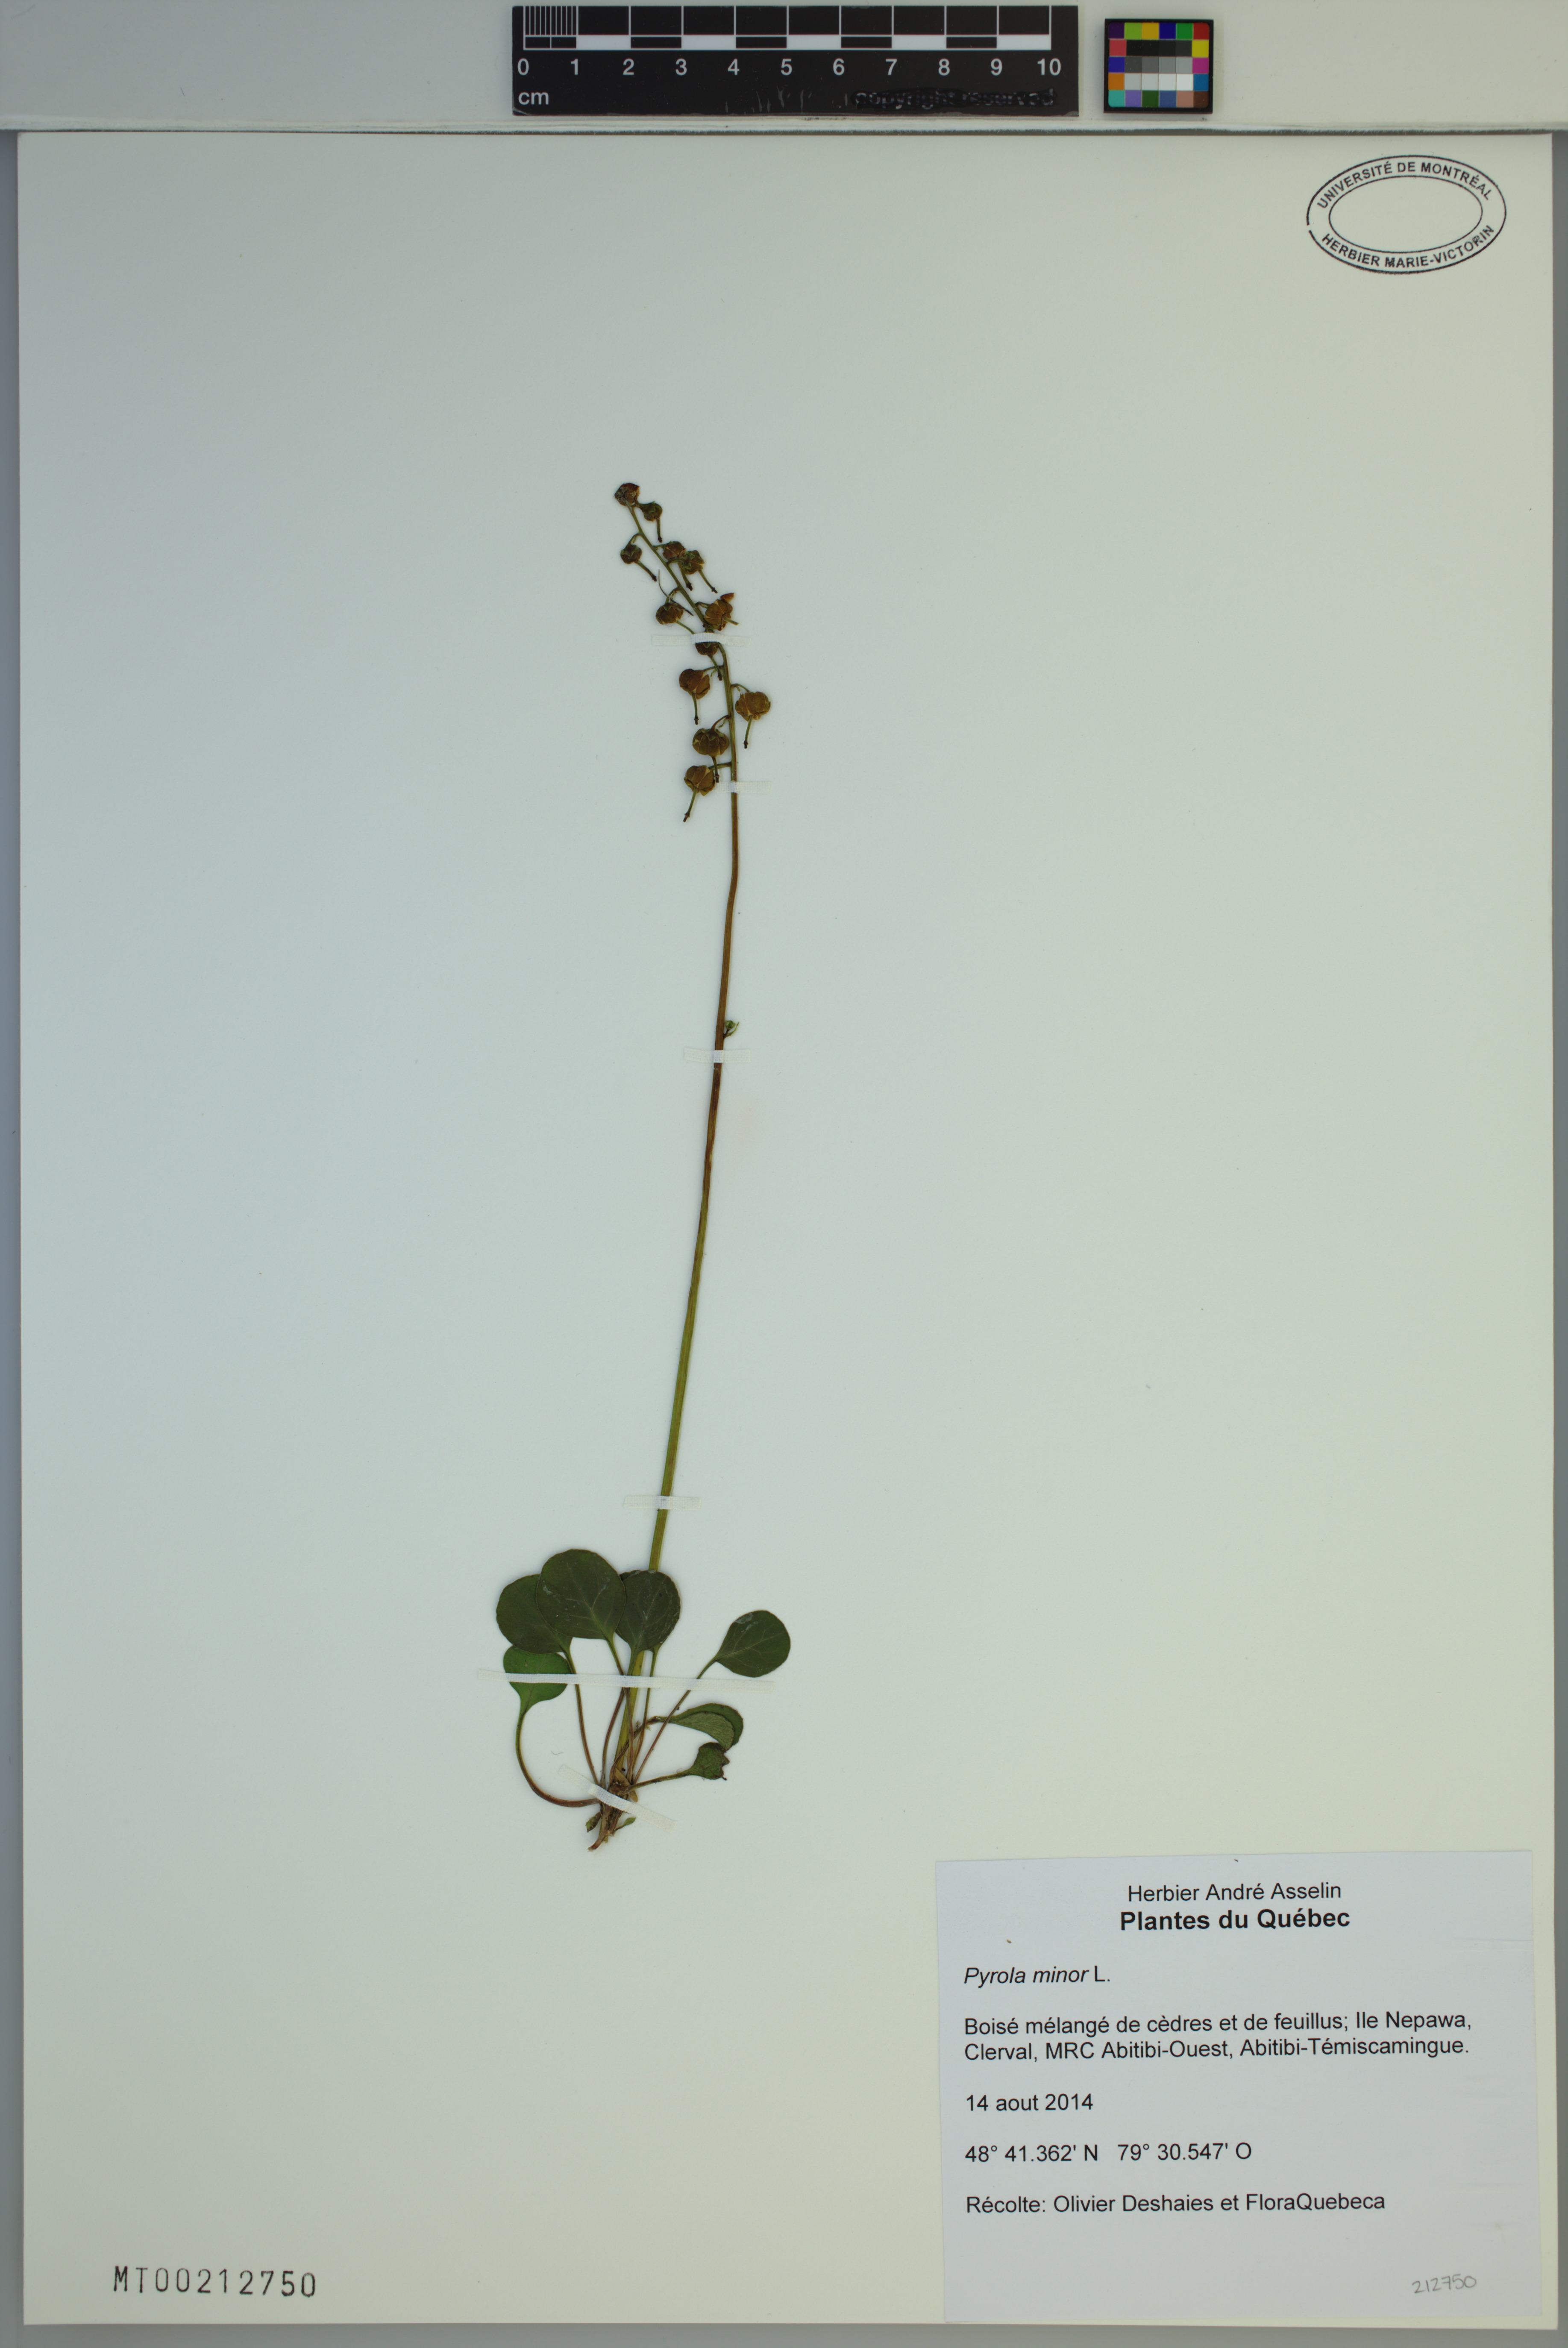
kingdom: Plantae
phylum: Tracheophyta
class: Magnoliopsida
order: Ericales
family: Ericaceae
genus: Pyrola
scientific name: Pyrola minor
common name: Common wintergreen
